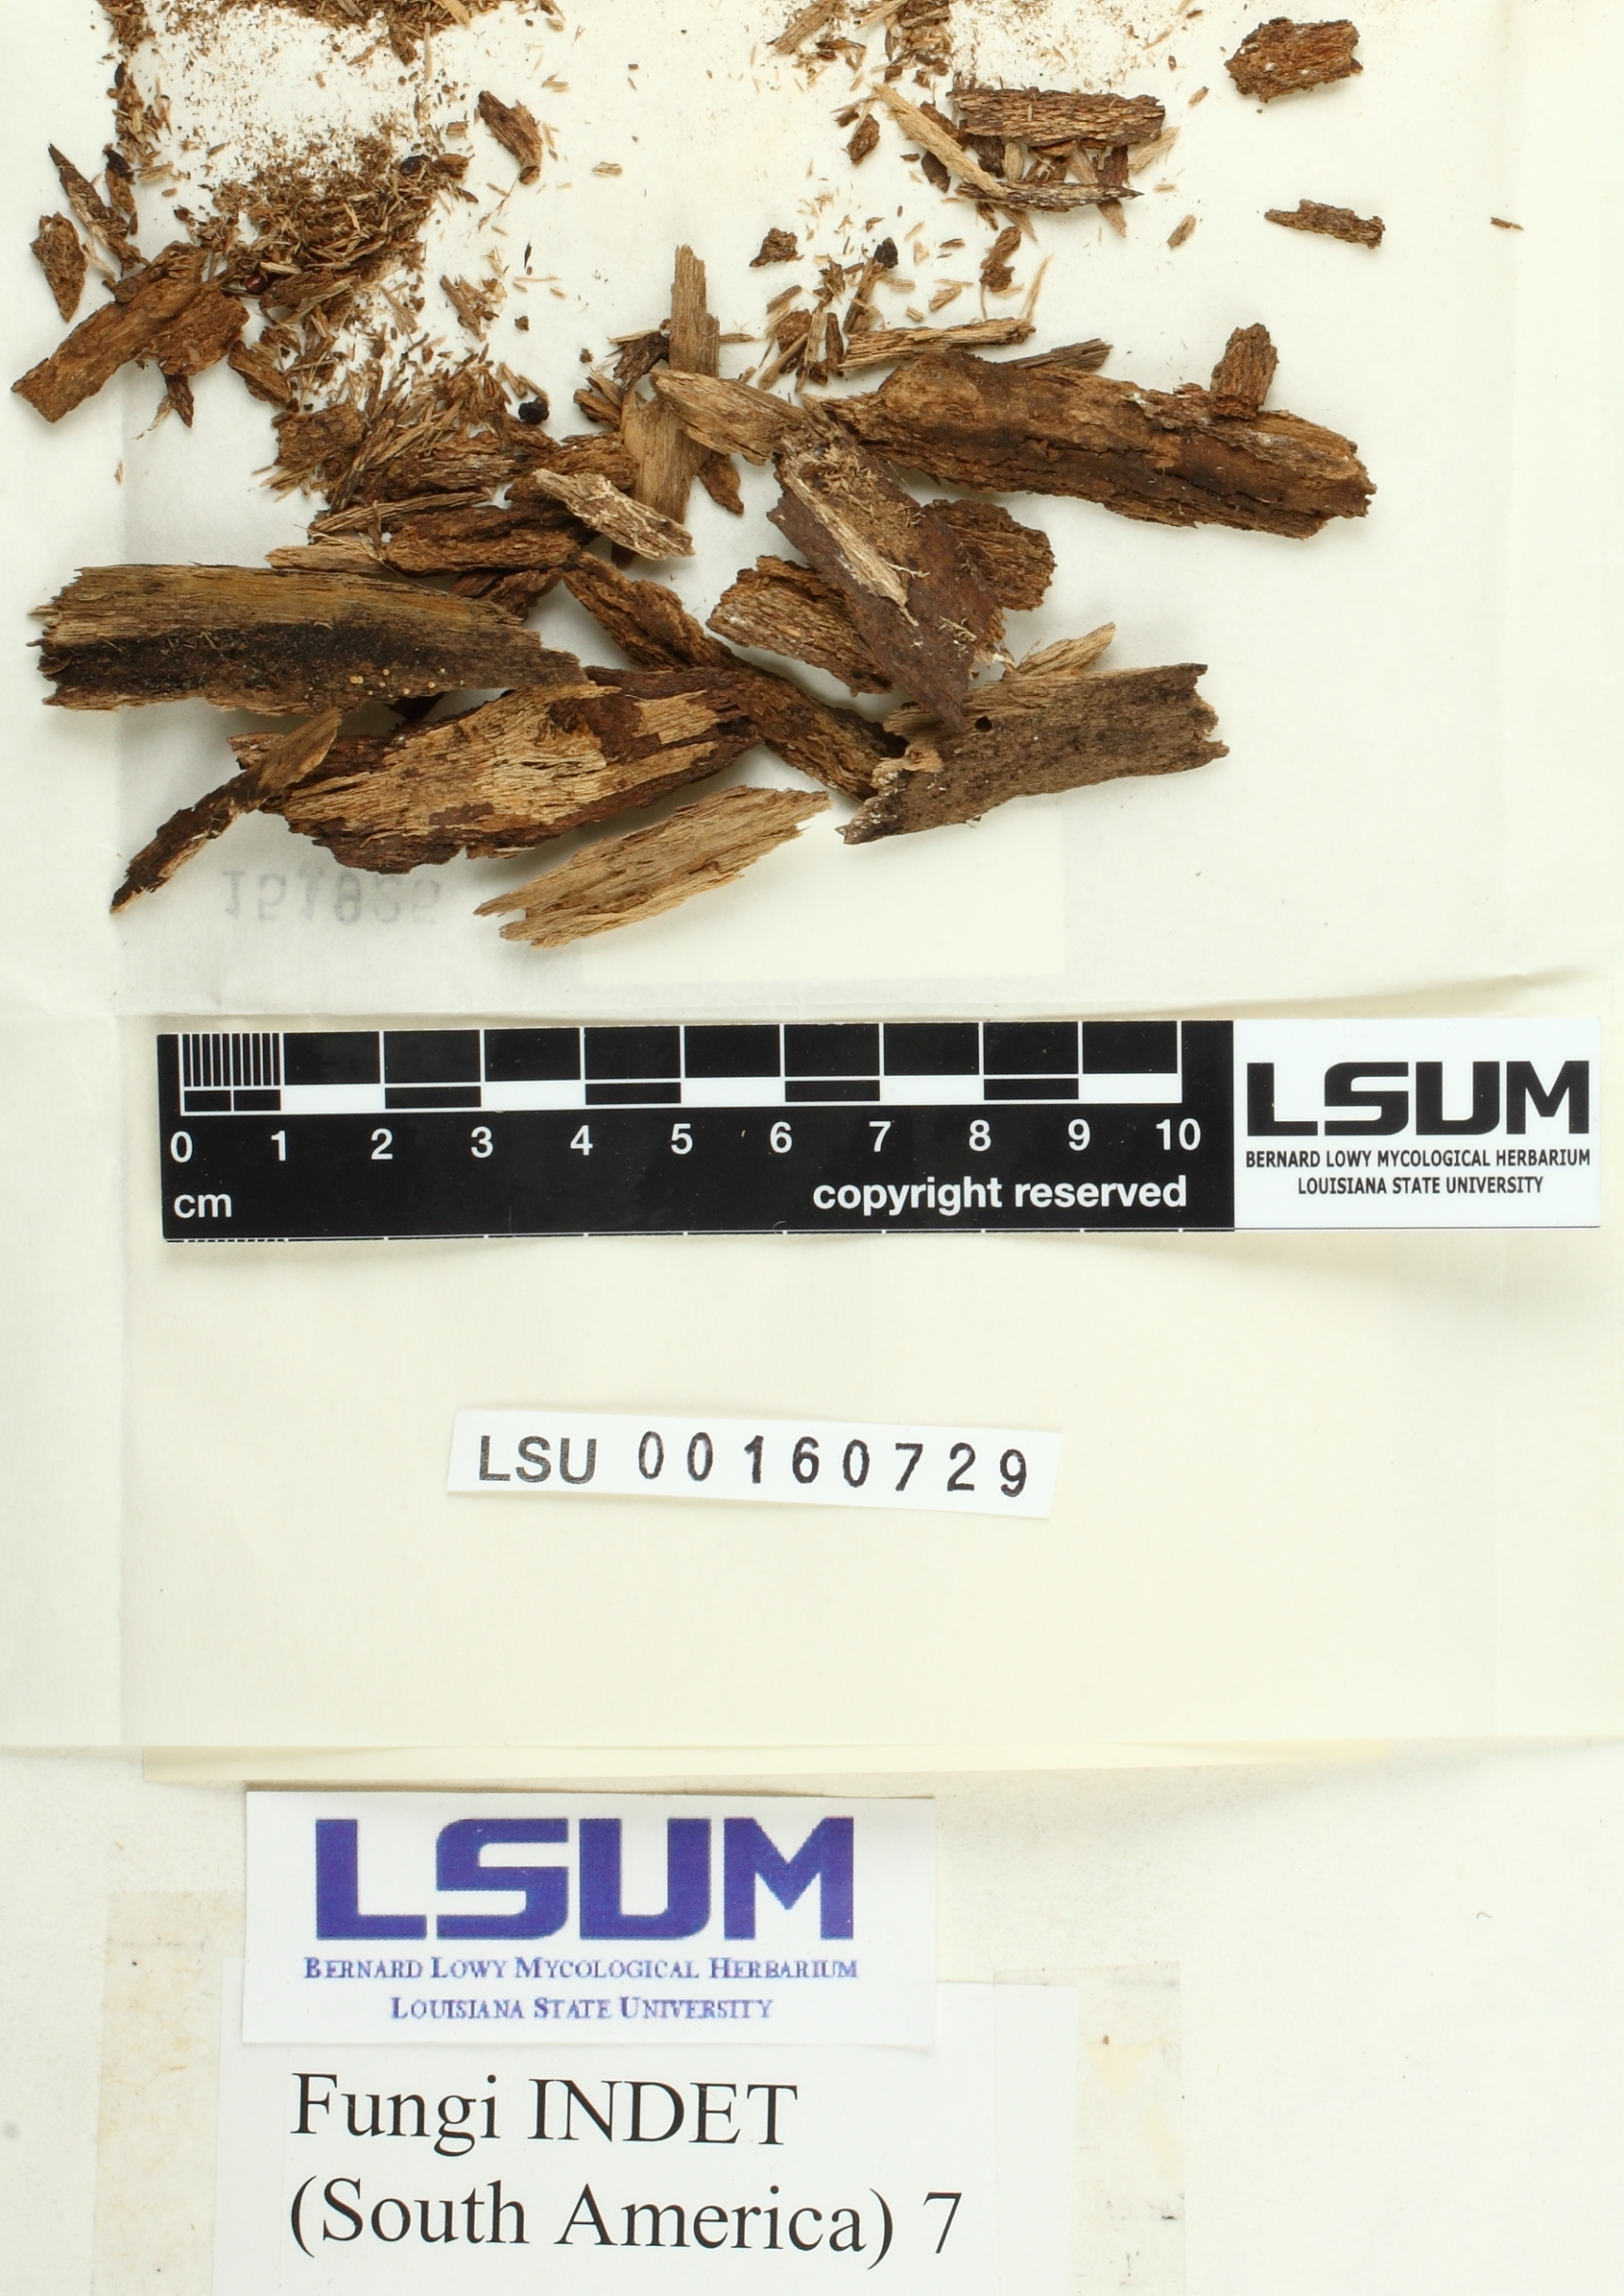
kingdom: Fungi
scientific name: Fungi
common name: Fungi
